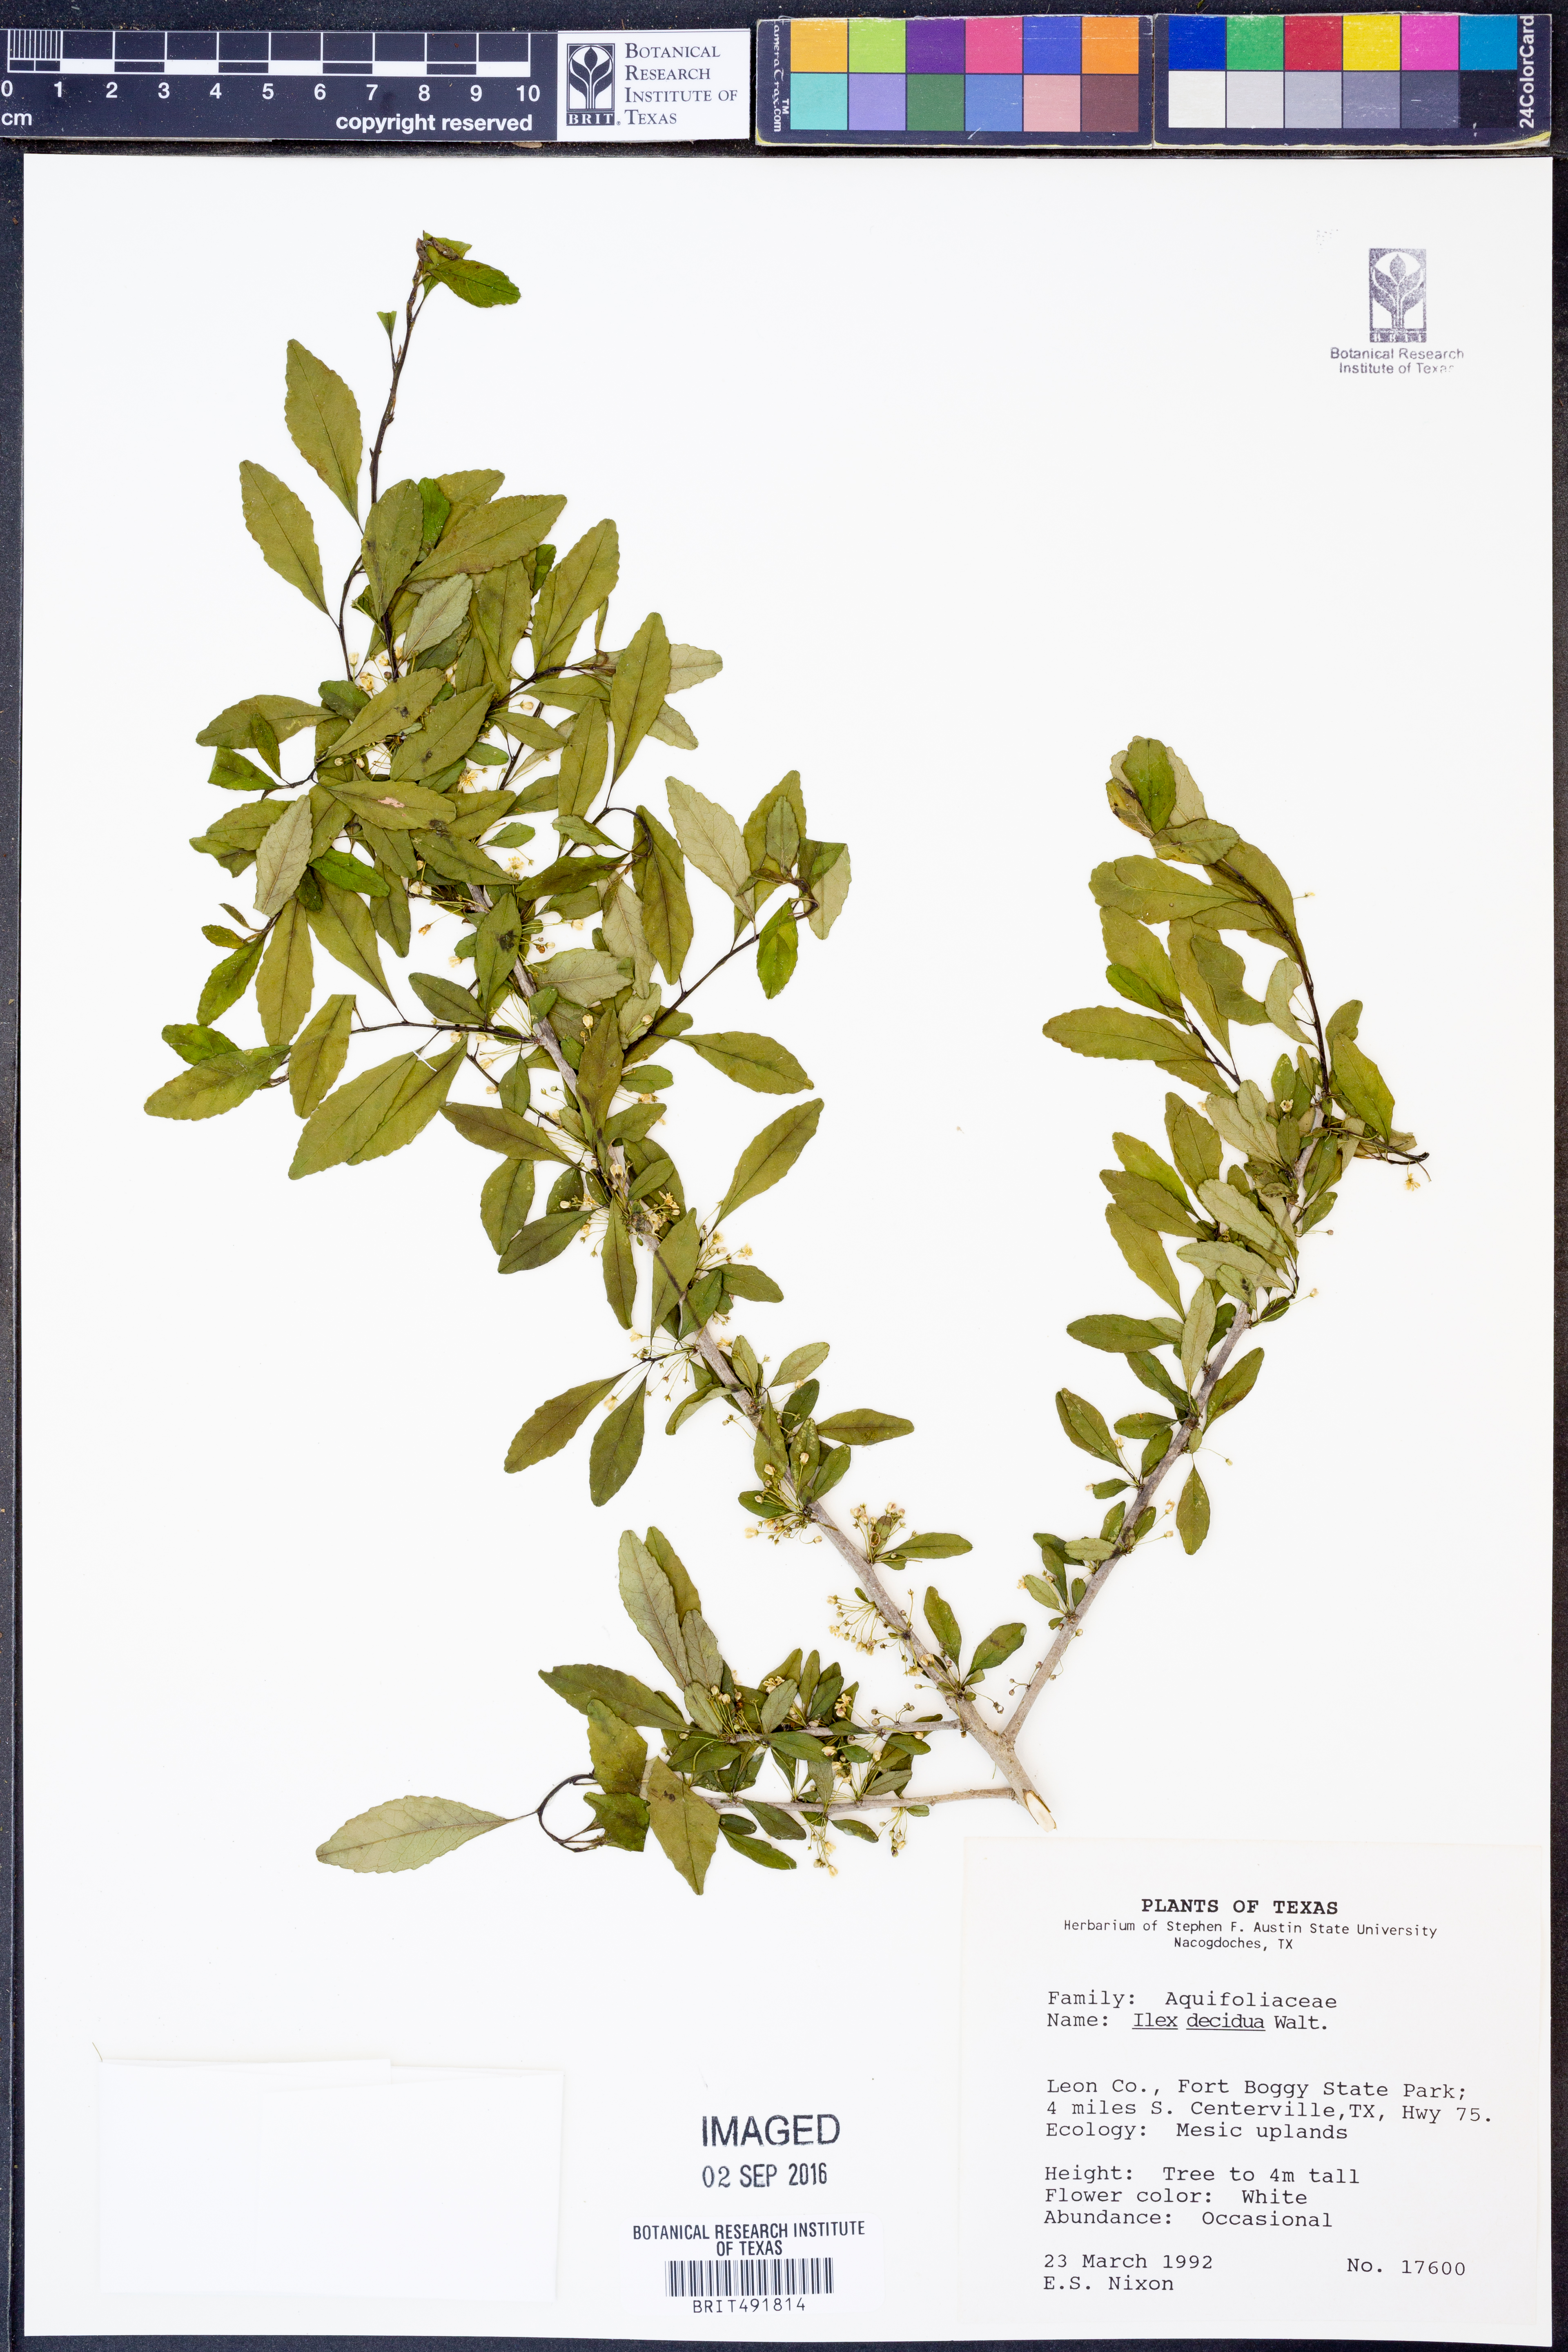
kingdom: Plantae
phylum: Tracheophyta
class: Magnoliopsida
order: Aquifoliales
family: Aquifoliaceae
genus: Ilex
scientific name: Ilex decidua
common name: Possum-haw
